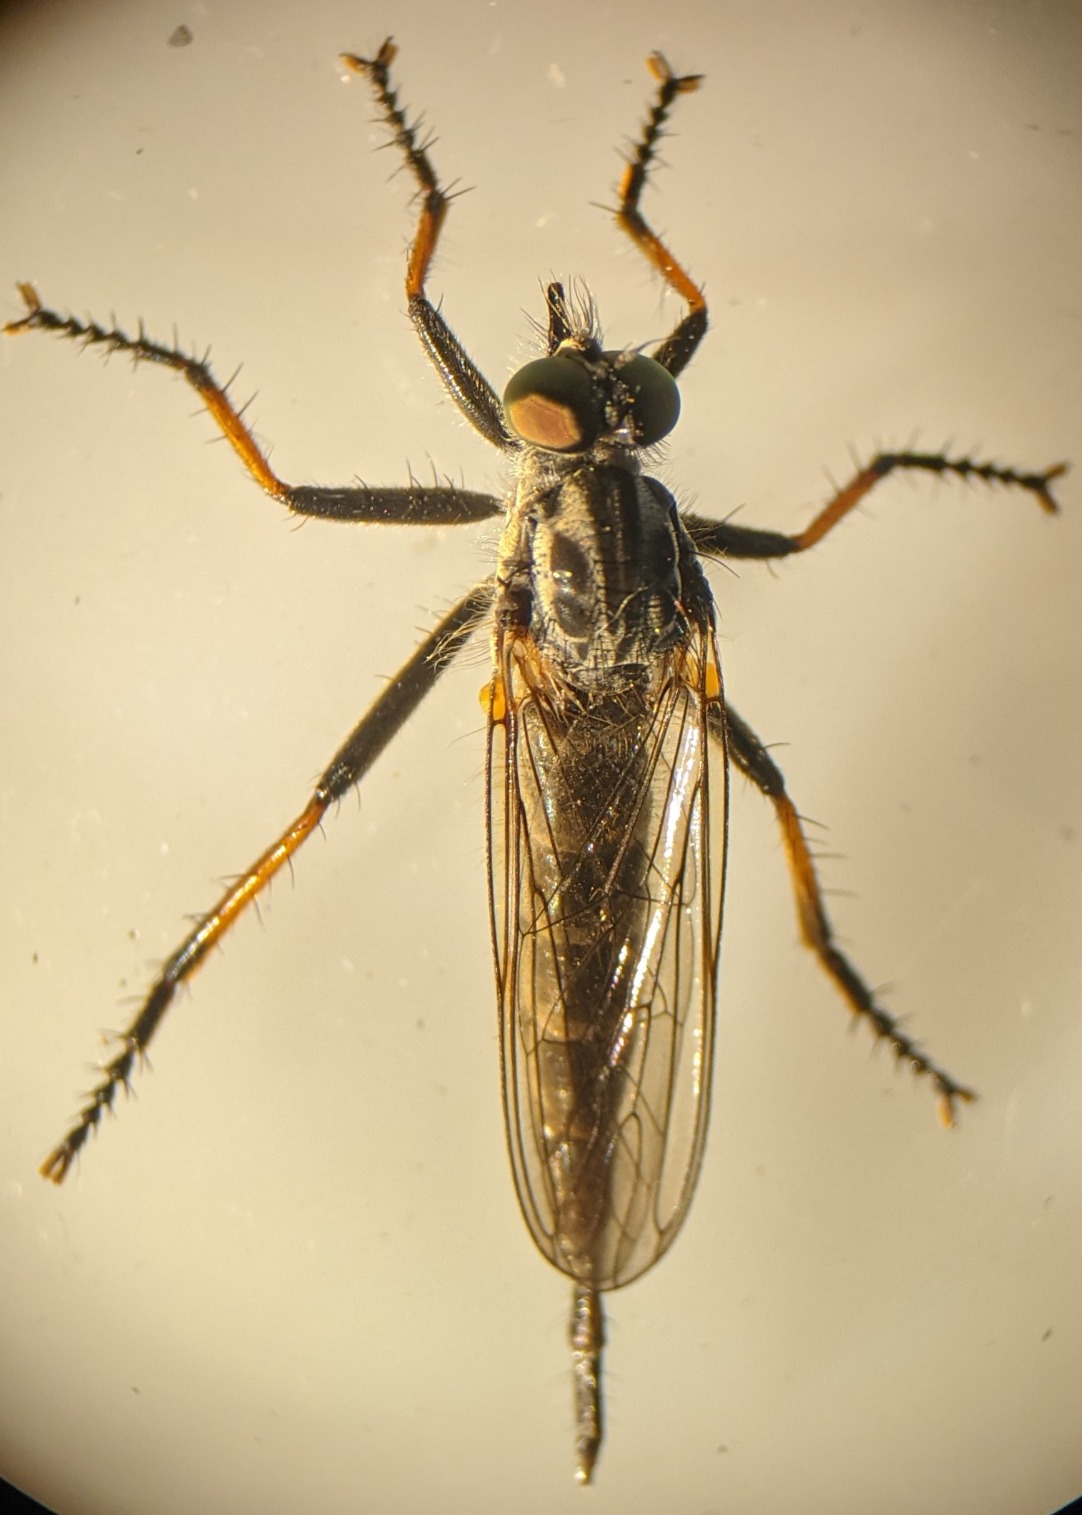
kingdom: Animalia
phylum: Arthropoda
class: Insecta
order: Diptera
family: Asilidae
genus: Neoitamus
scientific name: Neoitamus cyanurus
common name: Sortfodet skovrovflue
